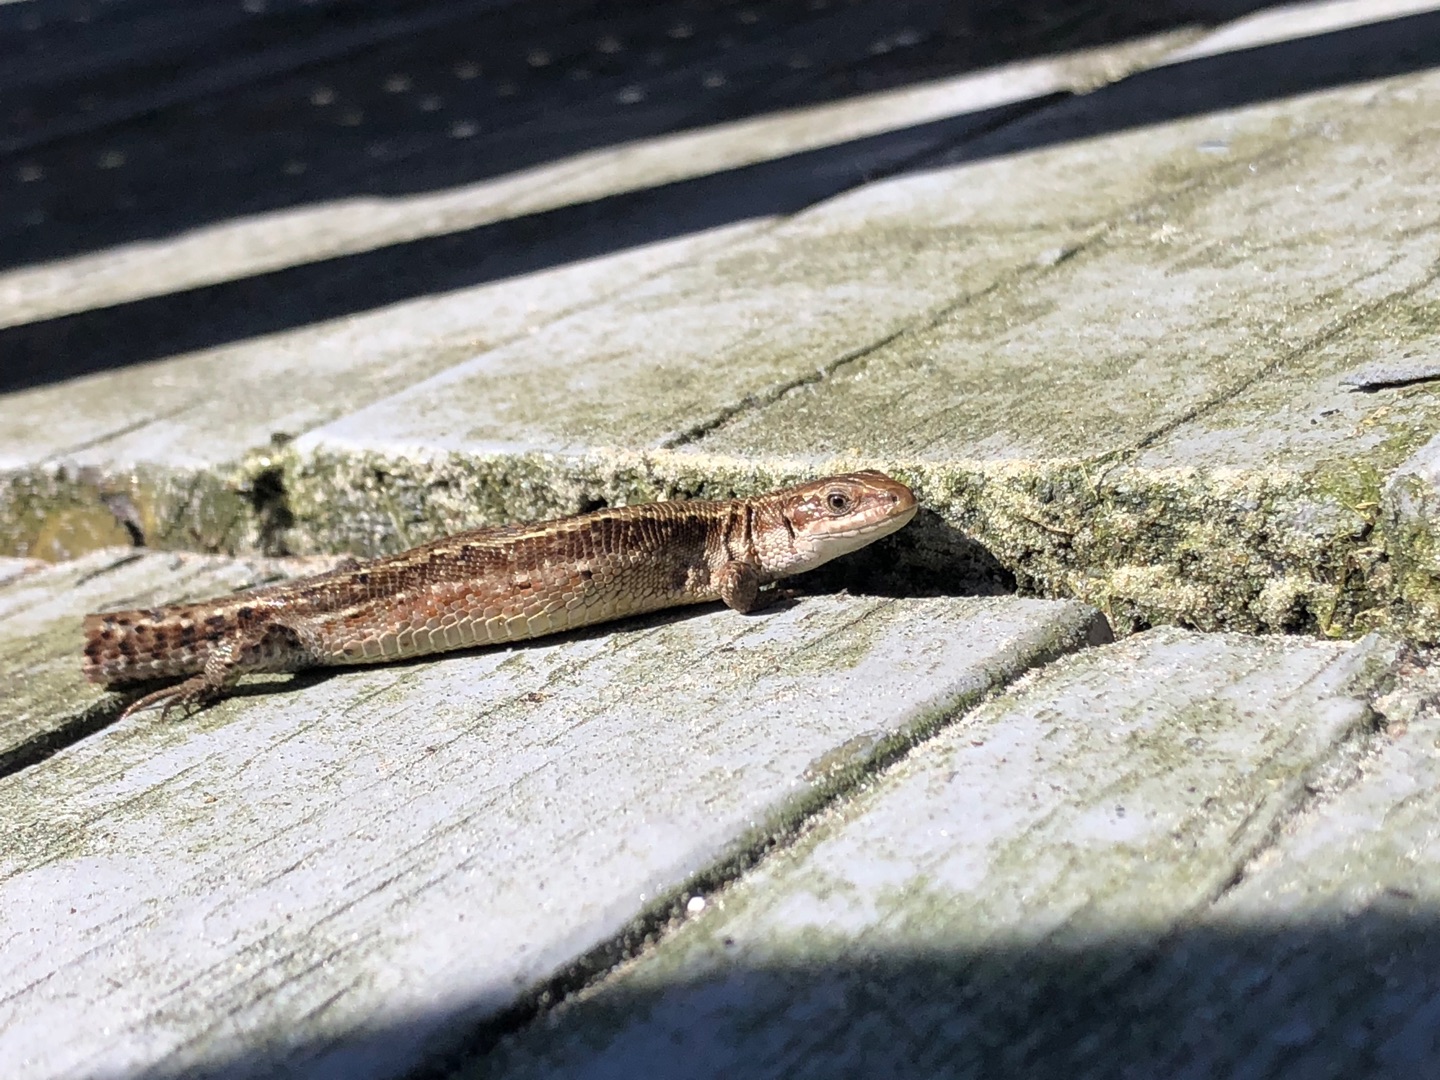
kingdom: Animalia
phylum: Chordata
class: Squamata
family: Lacertidae
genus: Zootoca
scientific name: Zootoca vivipara
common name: Skovfirben
